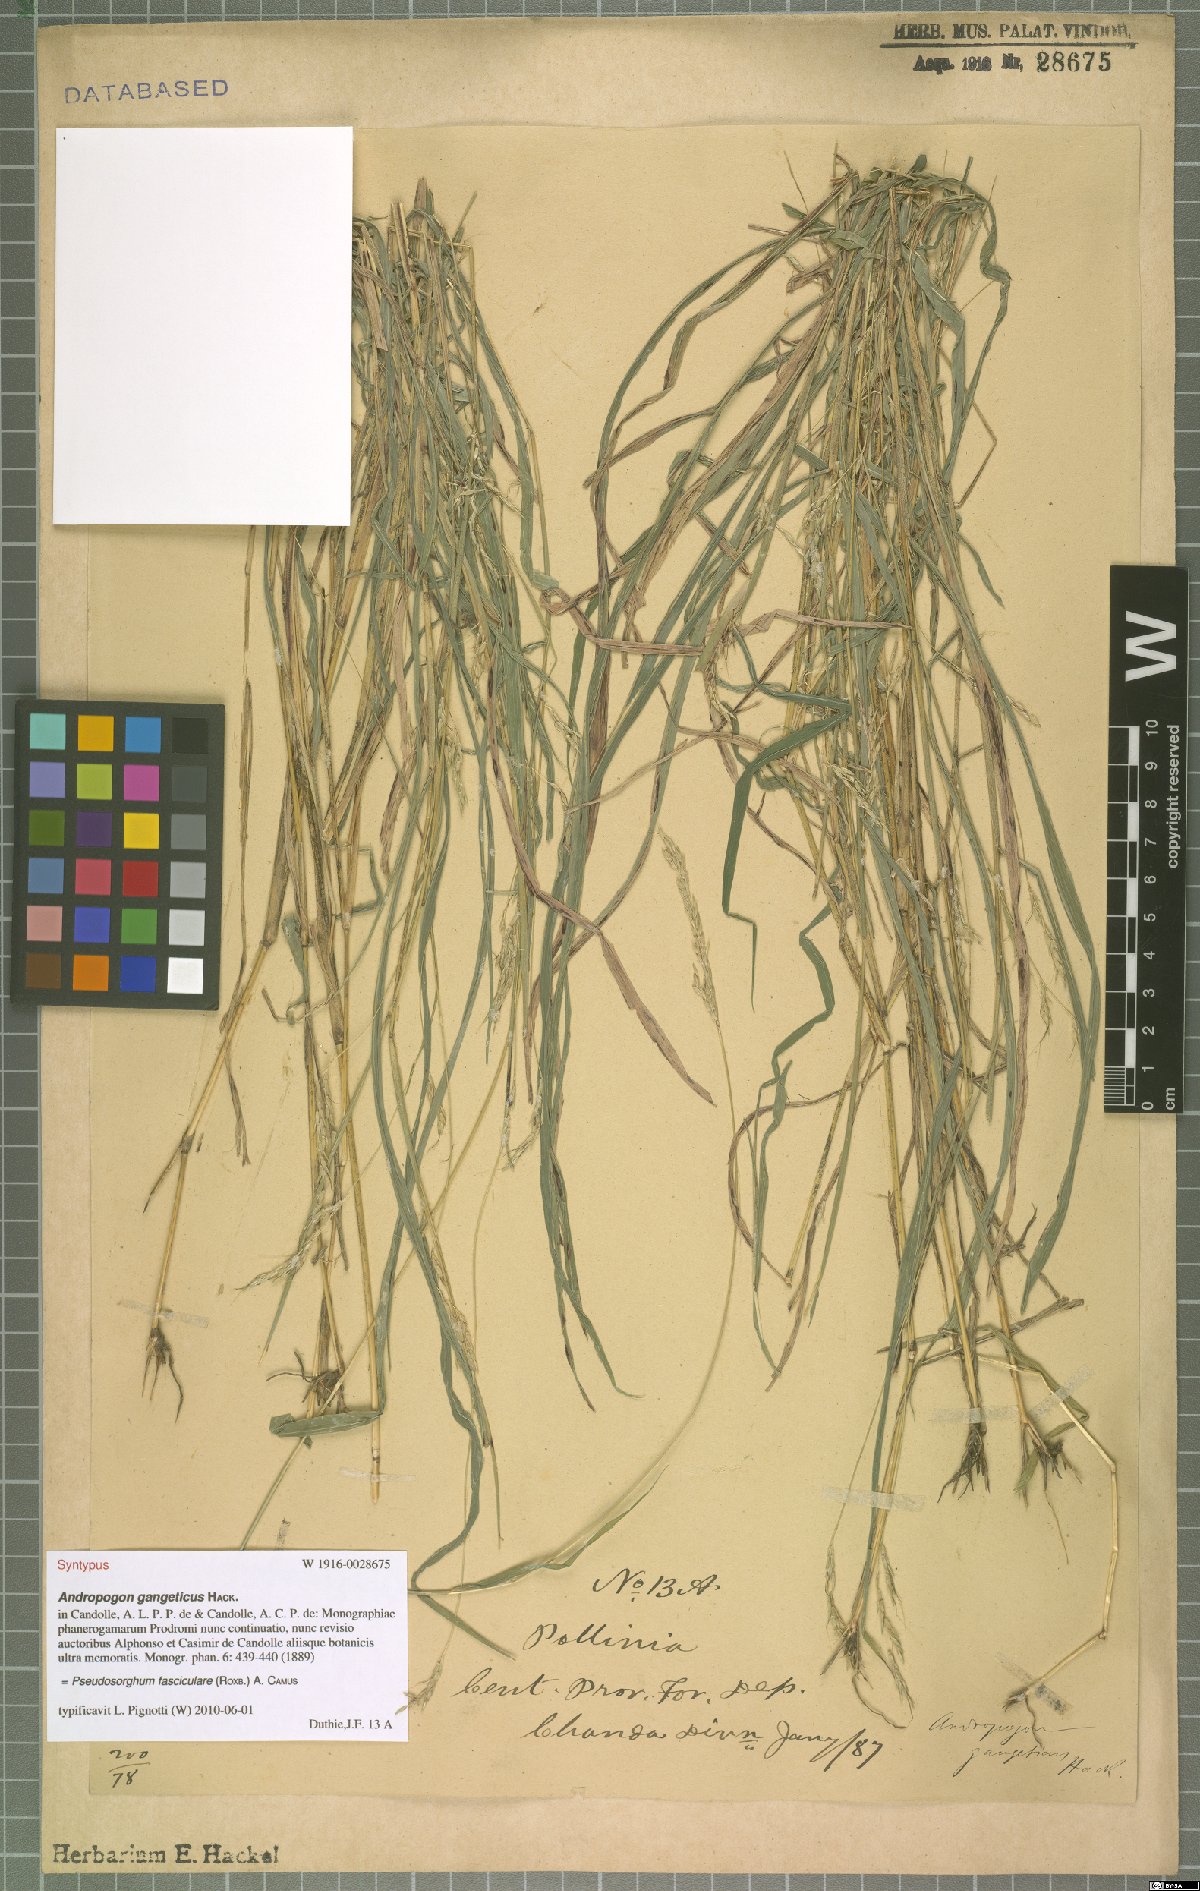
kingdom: Plantae
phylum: Tracheophyta
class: Liliopsida
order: Poales
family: Poaceae
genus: Pseudosorghum
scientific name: Pseudosorghum fasciculare
